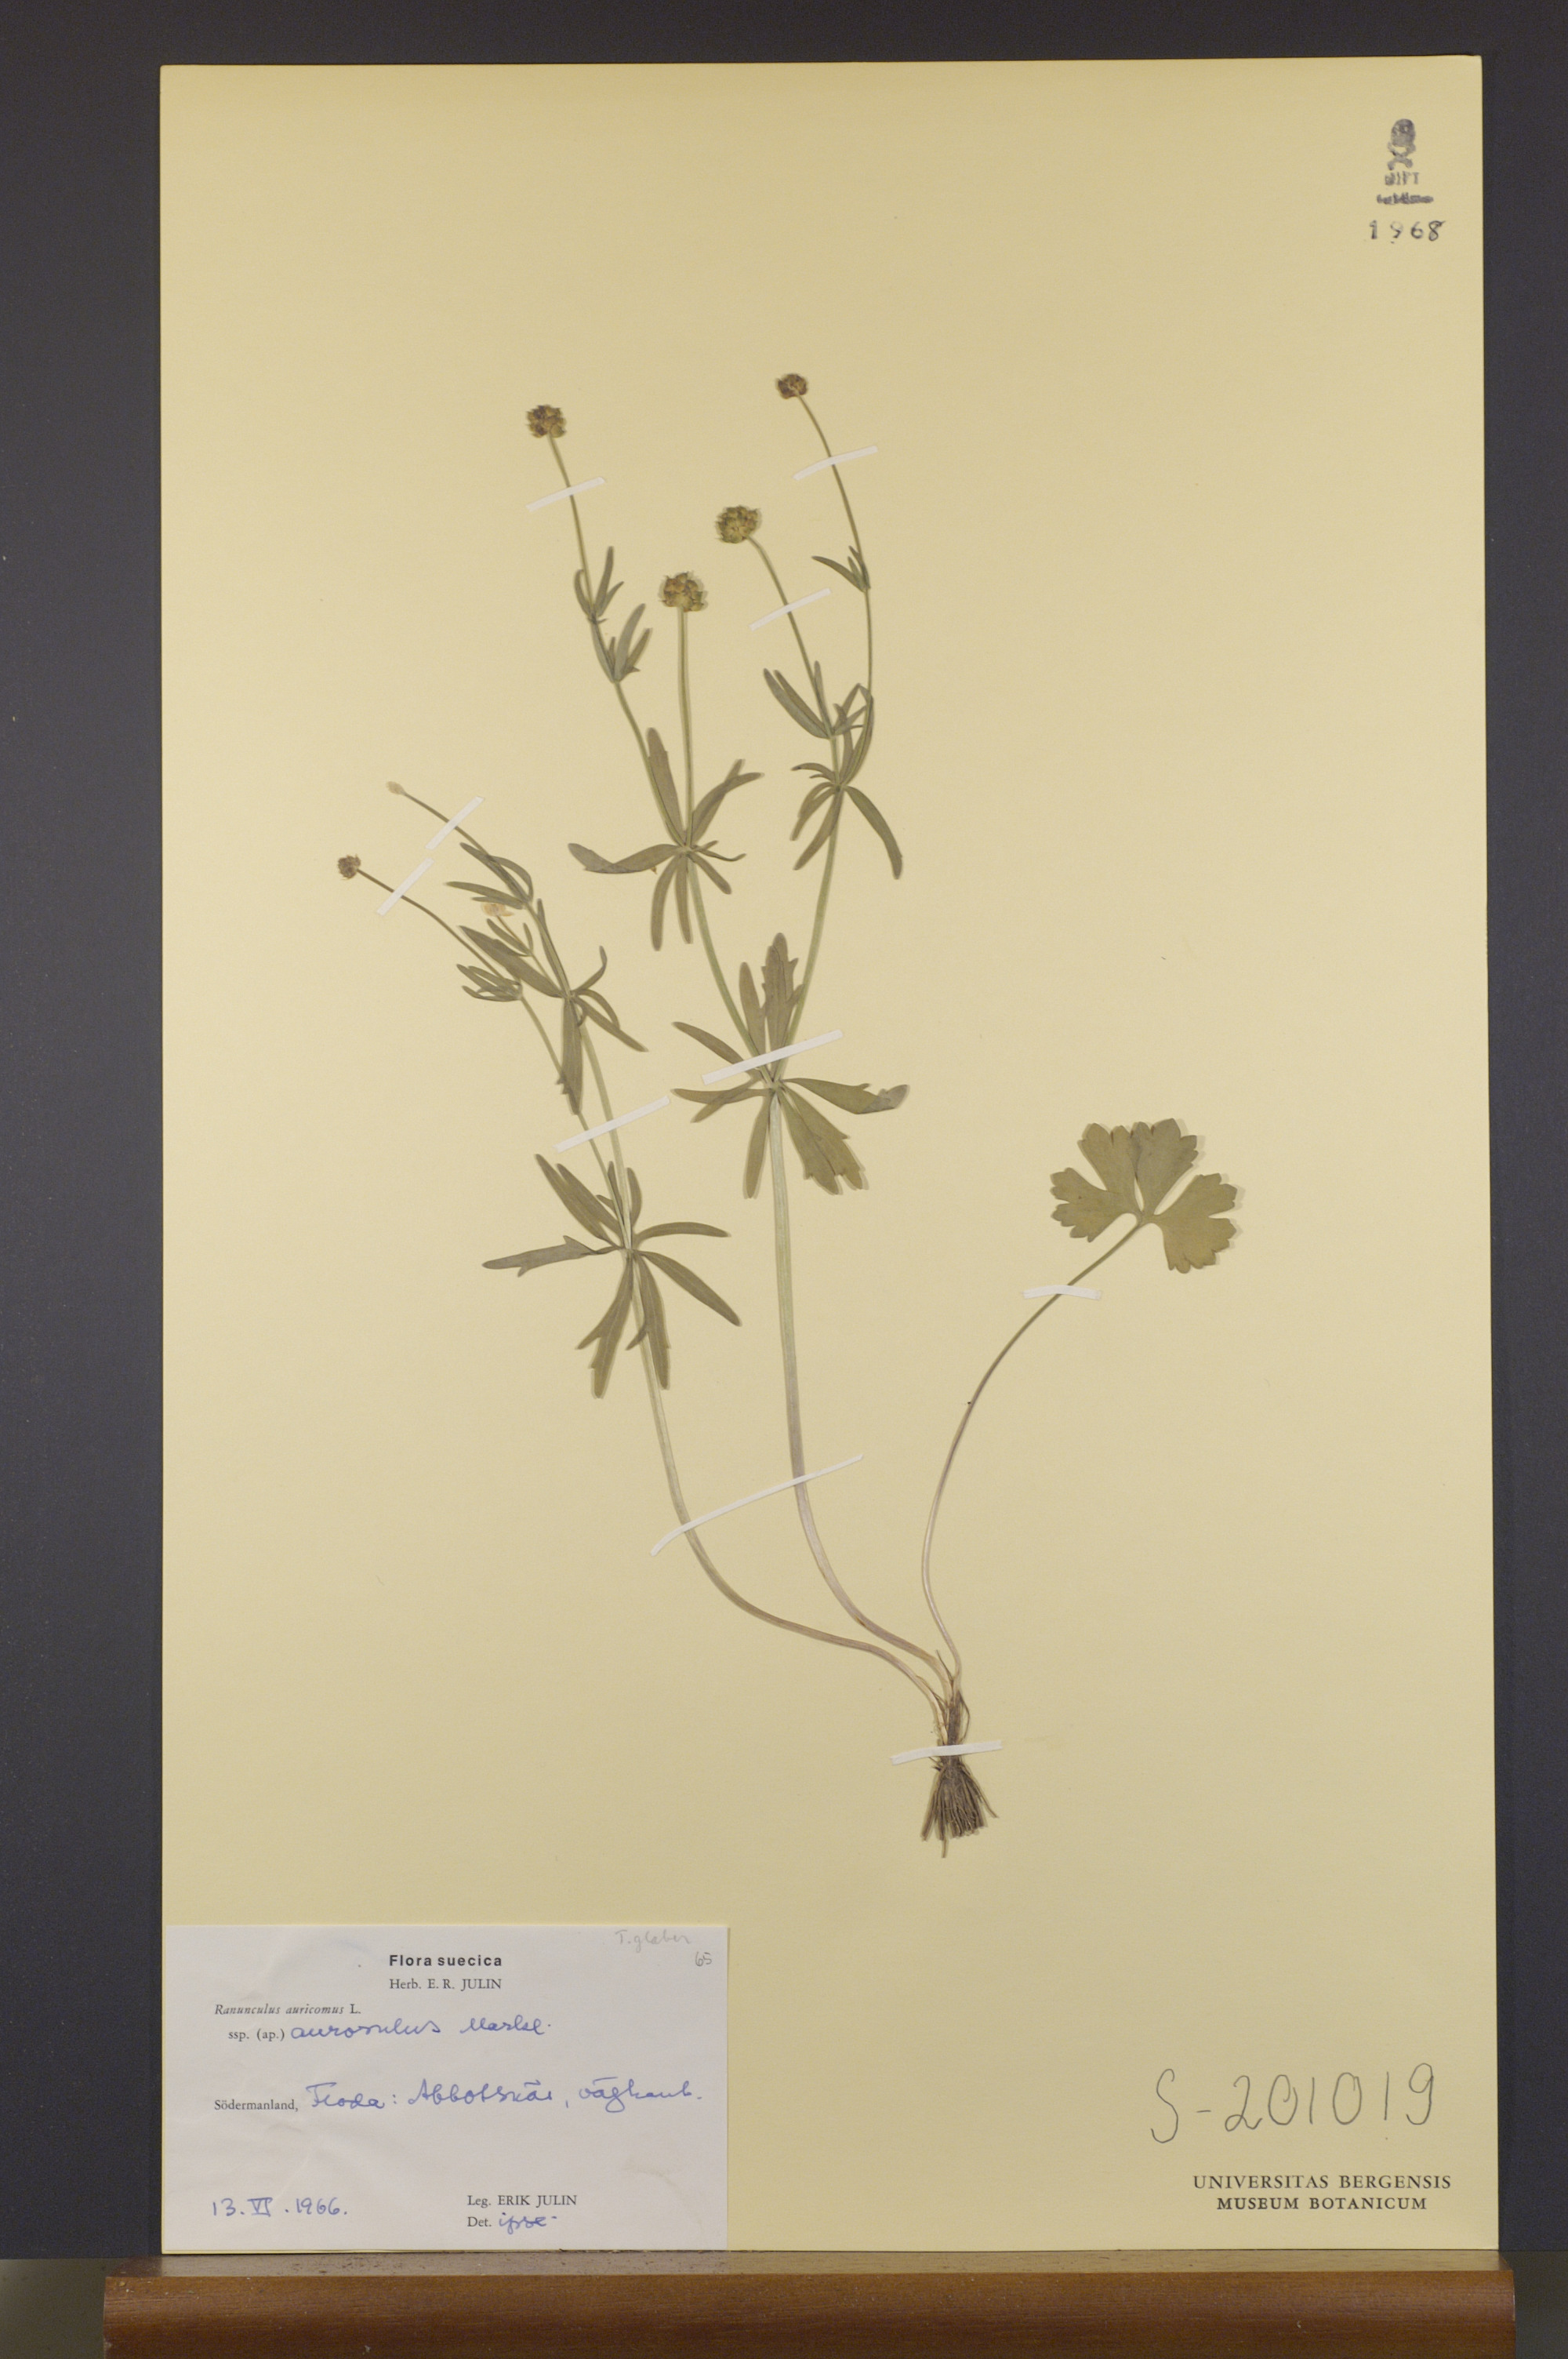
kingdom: Plantae
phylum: Tracheophyta
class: Magnoliopsida
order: Ranunculales
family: Ranunculaceae
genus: Ranunculus
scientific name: Ranunculus aurosulus
